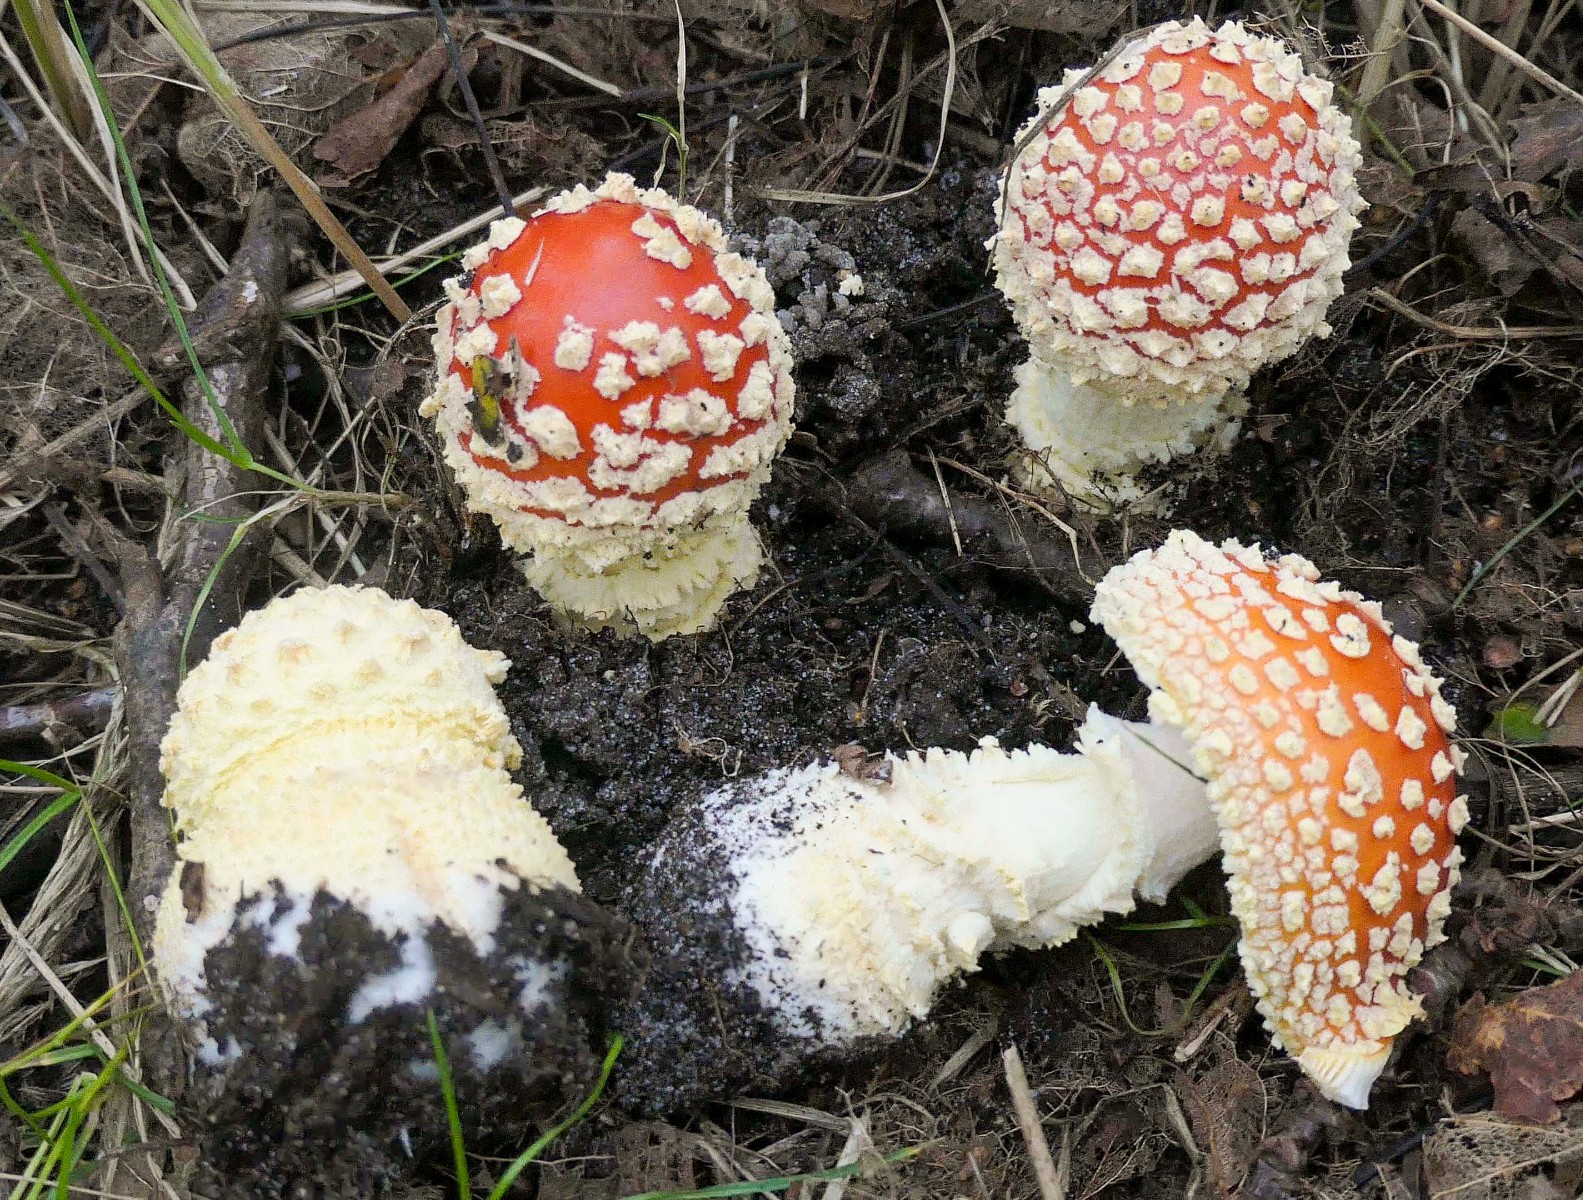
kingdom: Fungi
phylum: Basidiomycota
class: Agaricomycetes
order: Agaricales
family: Amanitaceae
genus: Amanita
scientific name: Amanita muscaria
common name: rød fluesvamp
